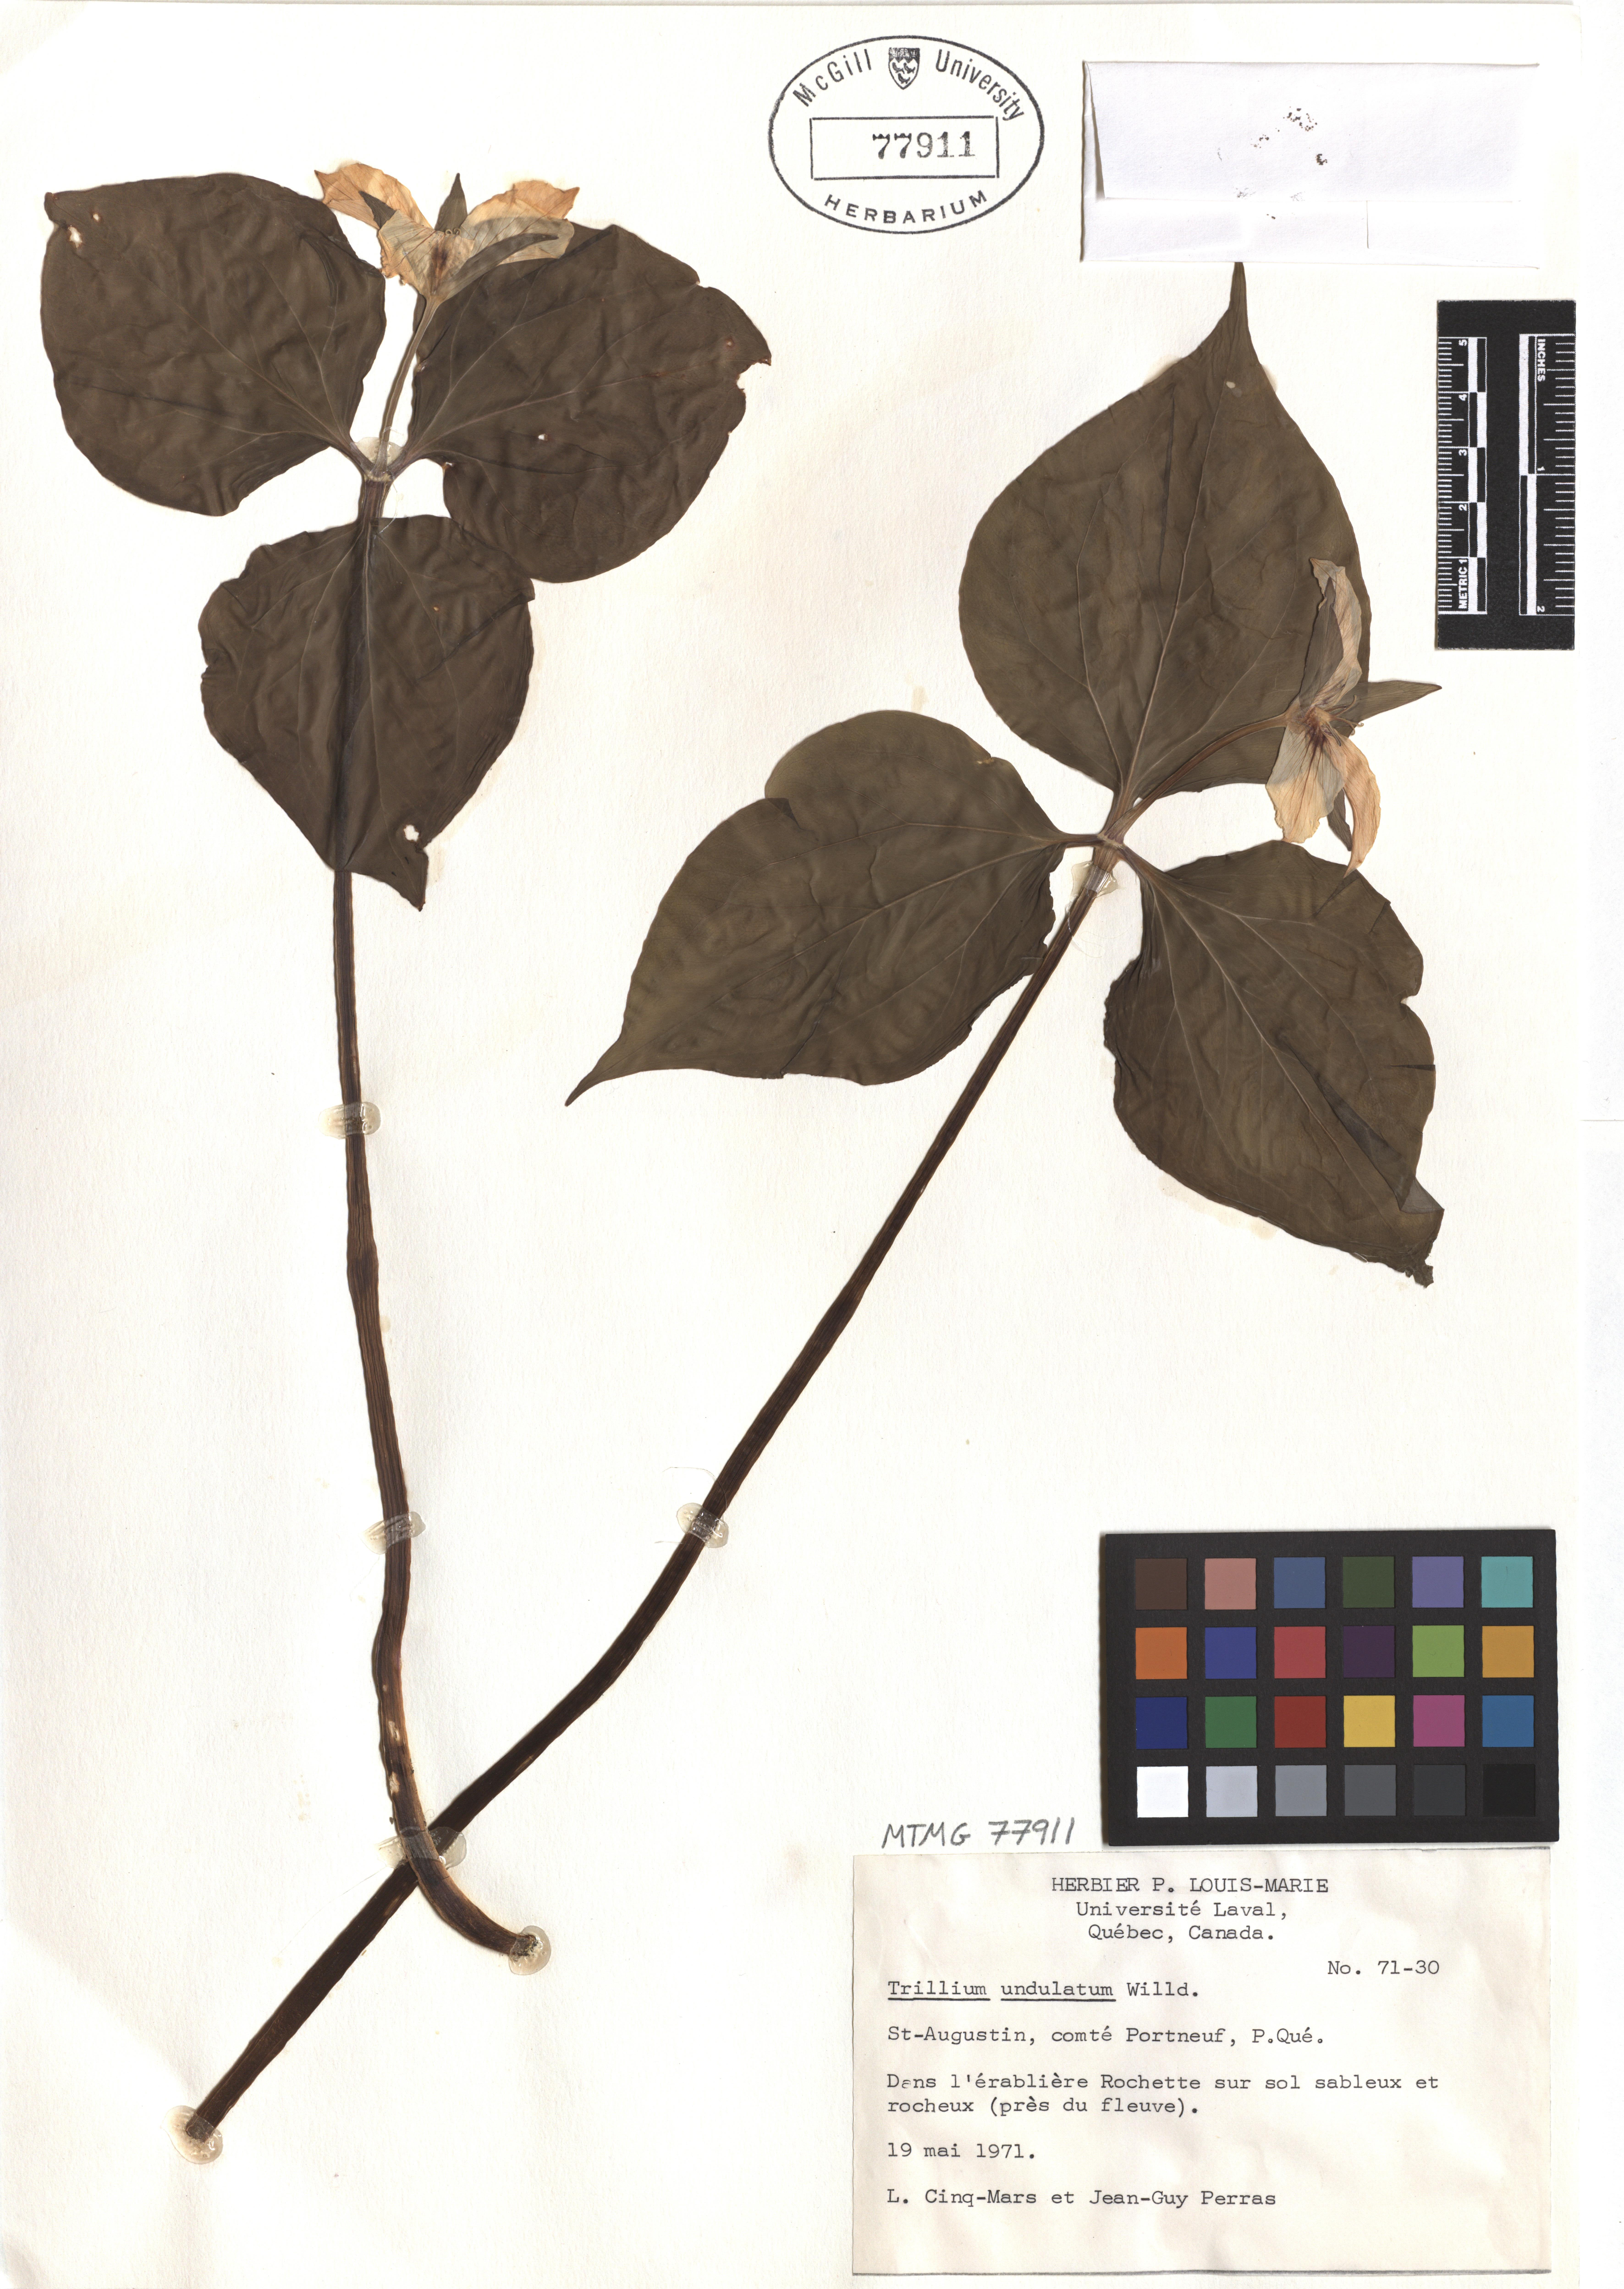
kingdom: Plantae
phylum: Tracheophyta
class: Liliopsida
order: Liliales
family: Melanthiaceae
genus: Trillium
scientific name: Trillium undulatum
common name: Paint trillium
